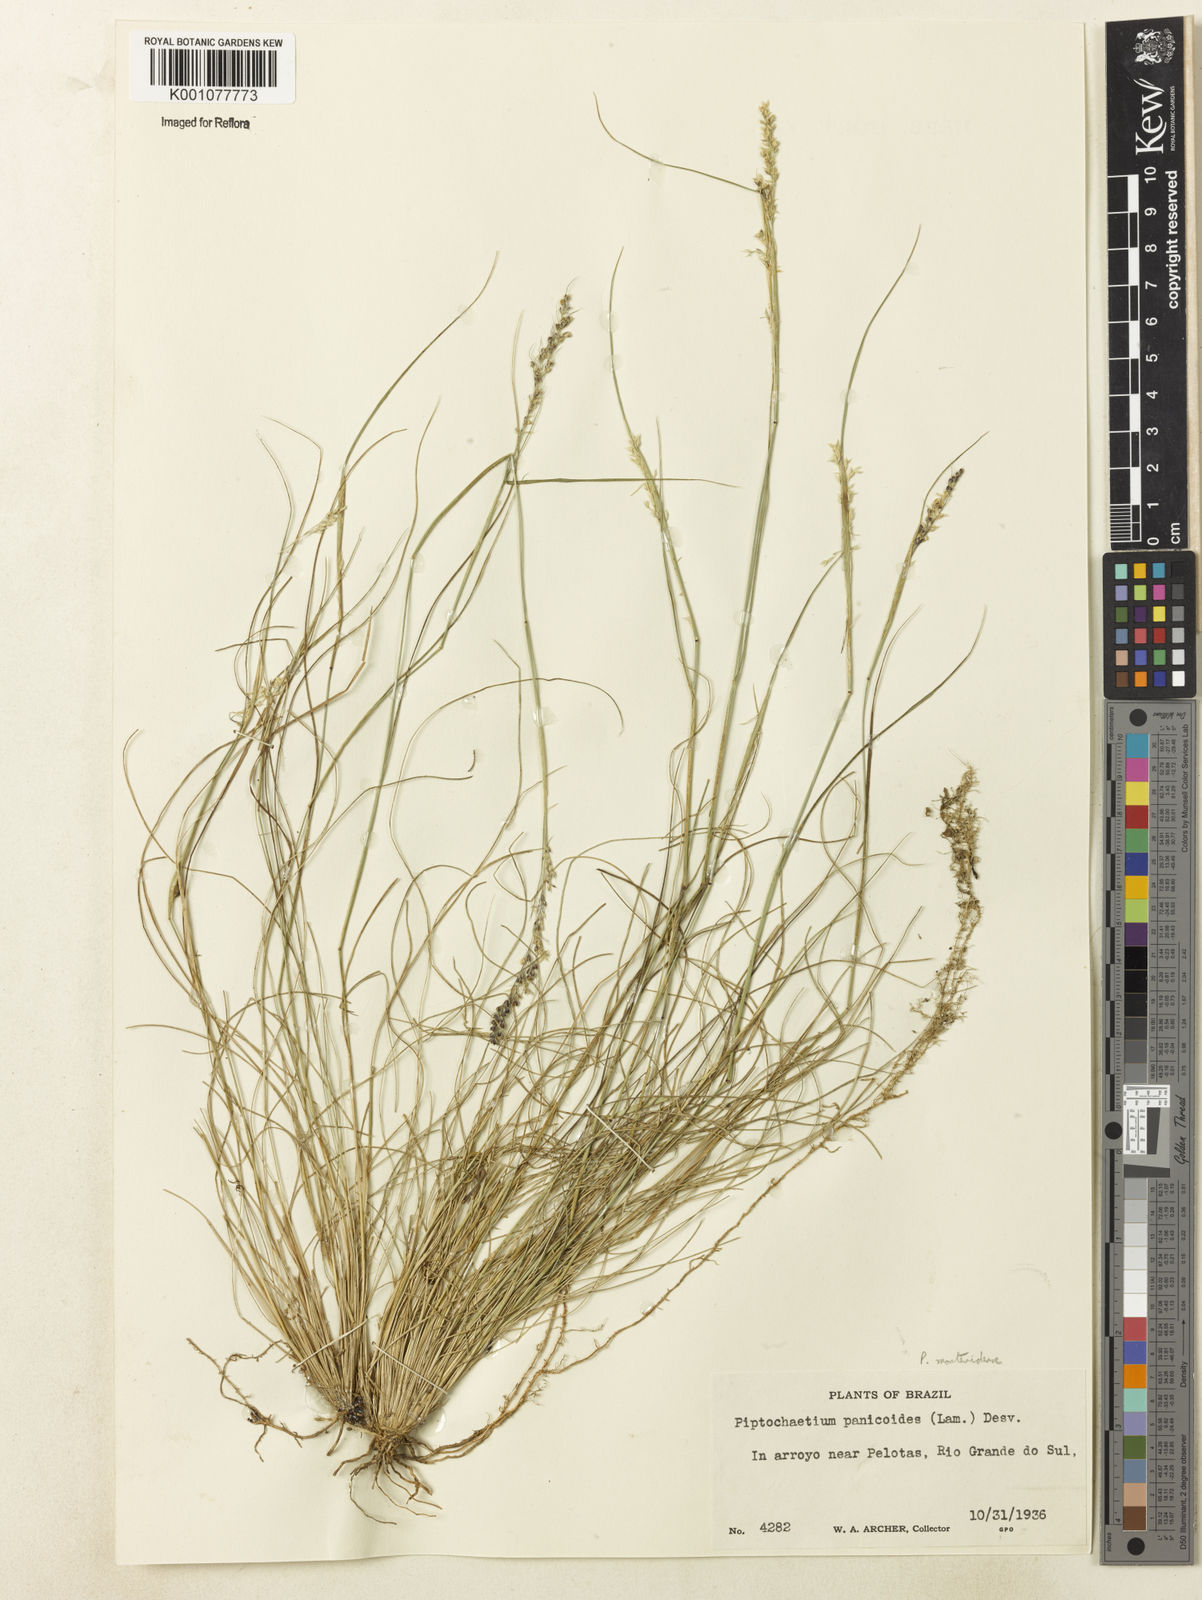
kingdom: Plantae
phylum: Tracheophyta
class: Liliopsida
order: Poales
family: Poaceae
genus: Piptochaetium
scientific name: Piptochaetium montevidense
